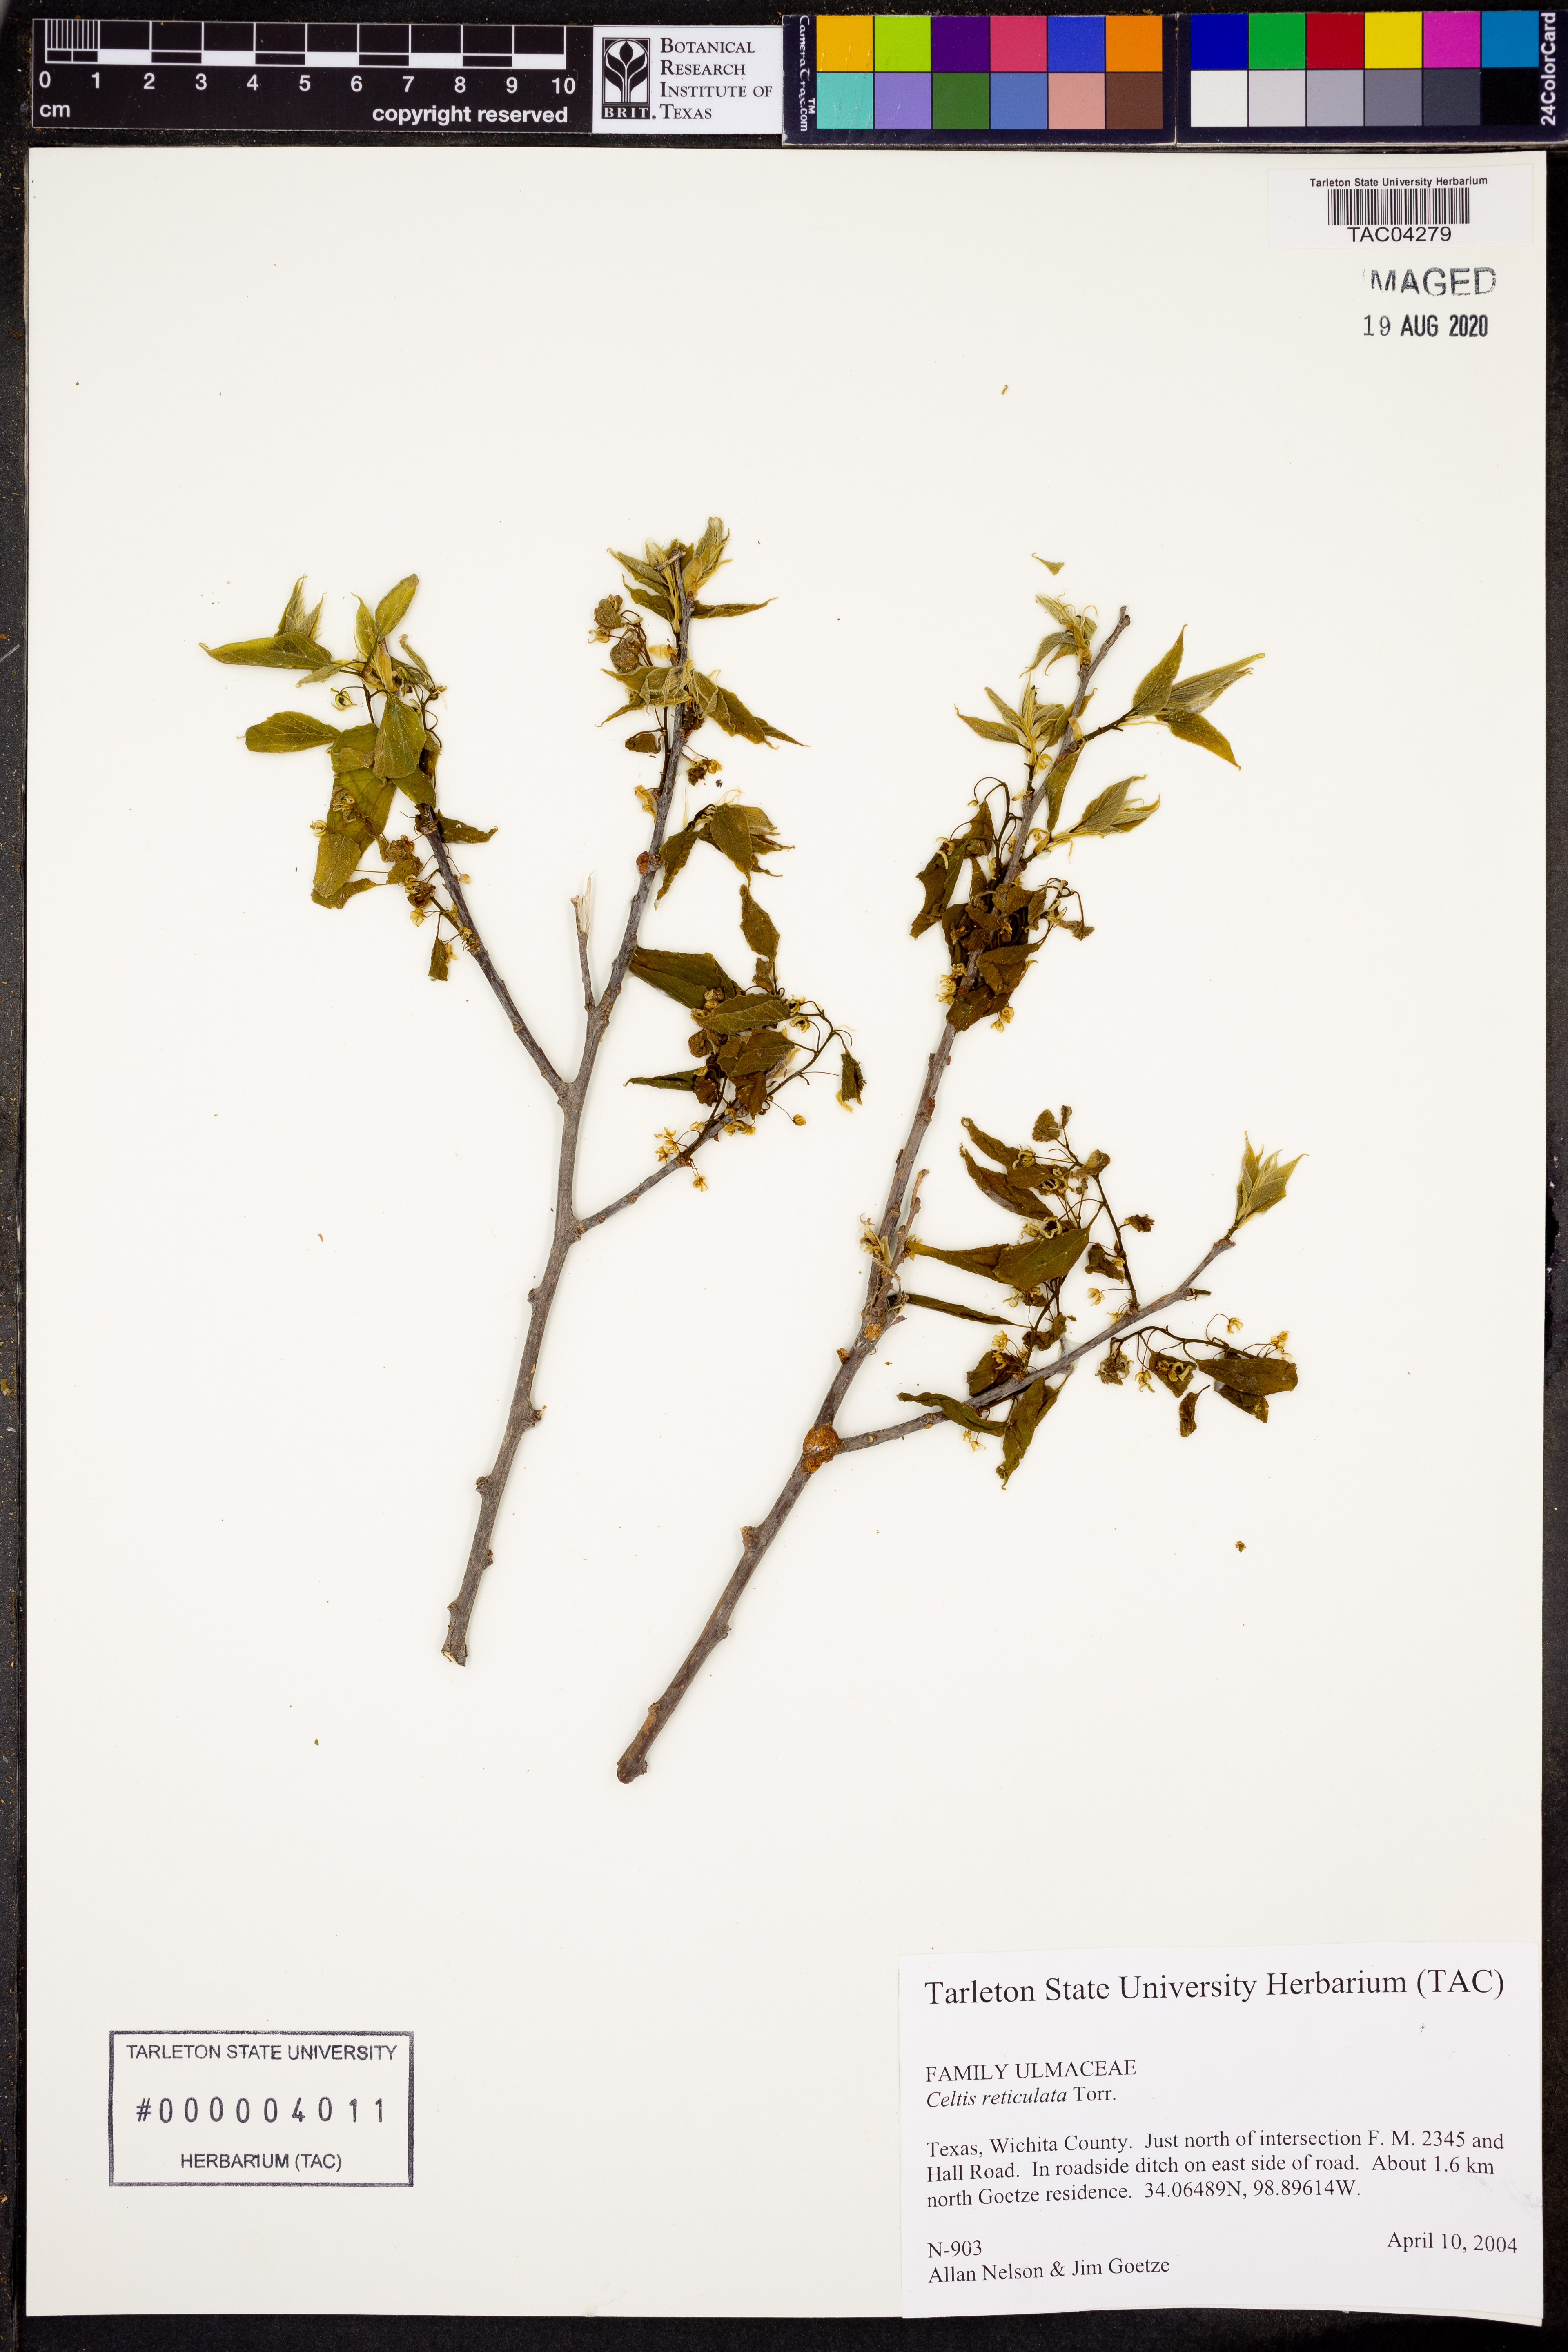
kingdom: Plantae
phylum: Tracheophyta
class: Magnoliopsida
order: Rosales
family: Cannabaceae
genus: Celtis
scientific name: Celtis reticulata
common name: Netleaf hackberry
